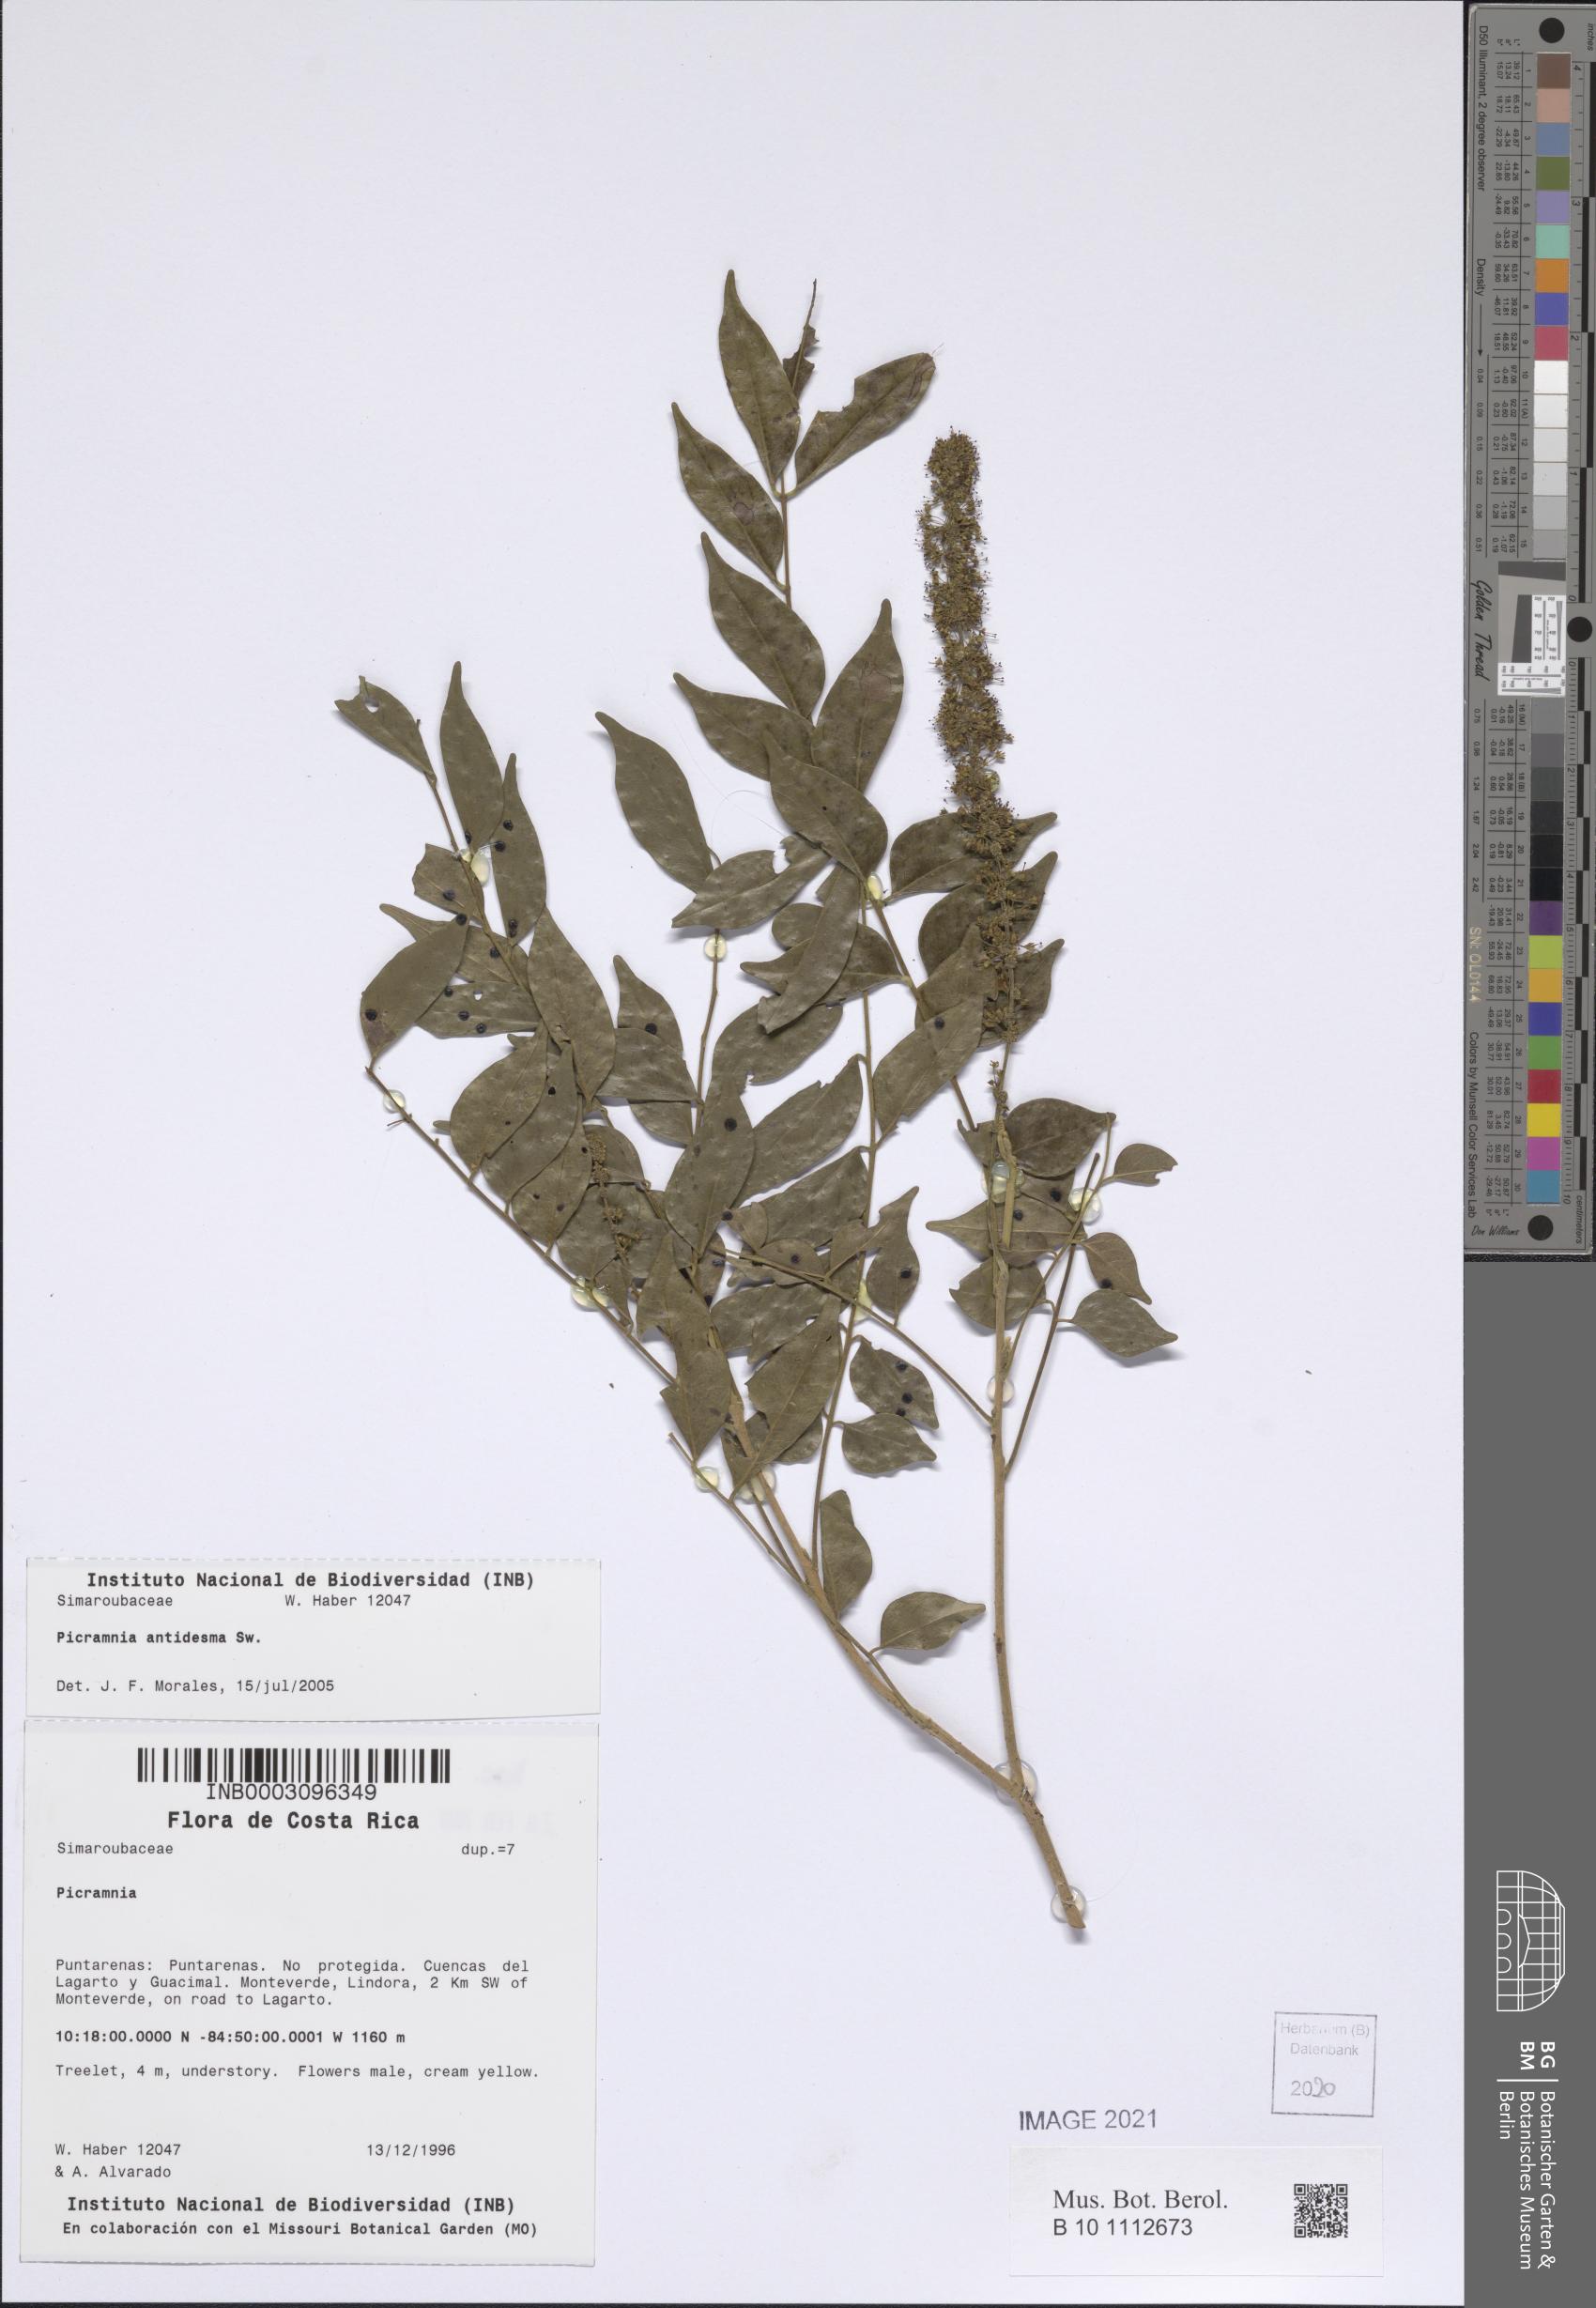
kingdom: Plantae
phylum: Tracheophyta
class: Magnoliopsida
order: Picramniales
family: Picramniaceae
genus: Picramnia
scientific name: Picramnia antidesma
